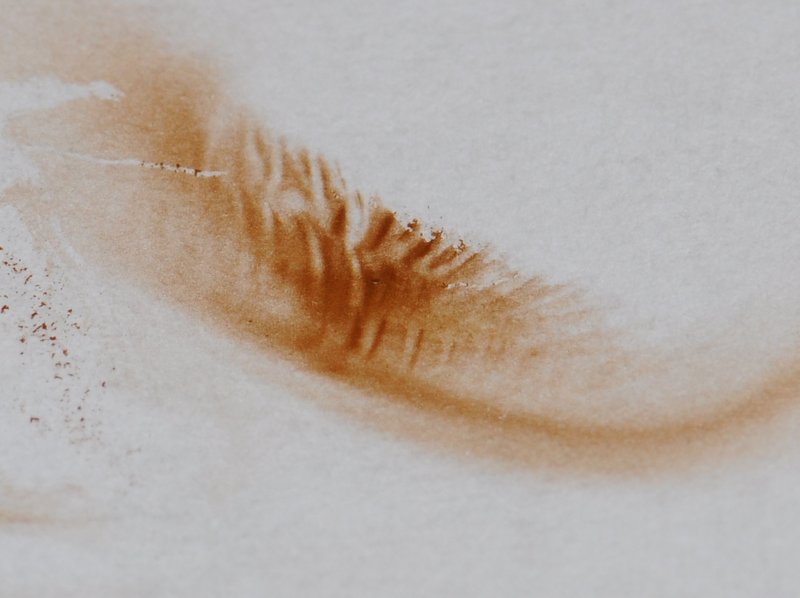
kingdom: Fungi
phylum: Basidiomycota
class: Agaricomycetes
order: Agaricales
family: Bolbitiaceae
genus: Conocybe
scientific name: Conocybe velata
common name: tandet dansehat
